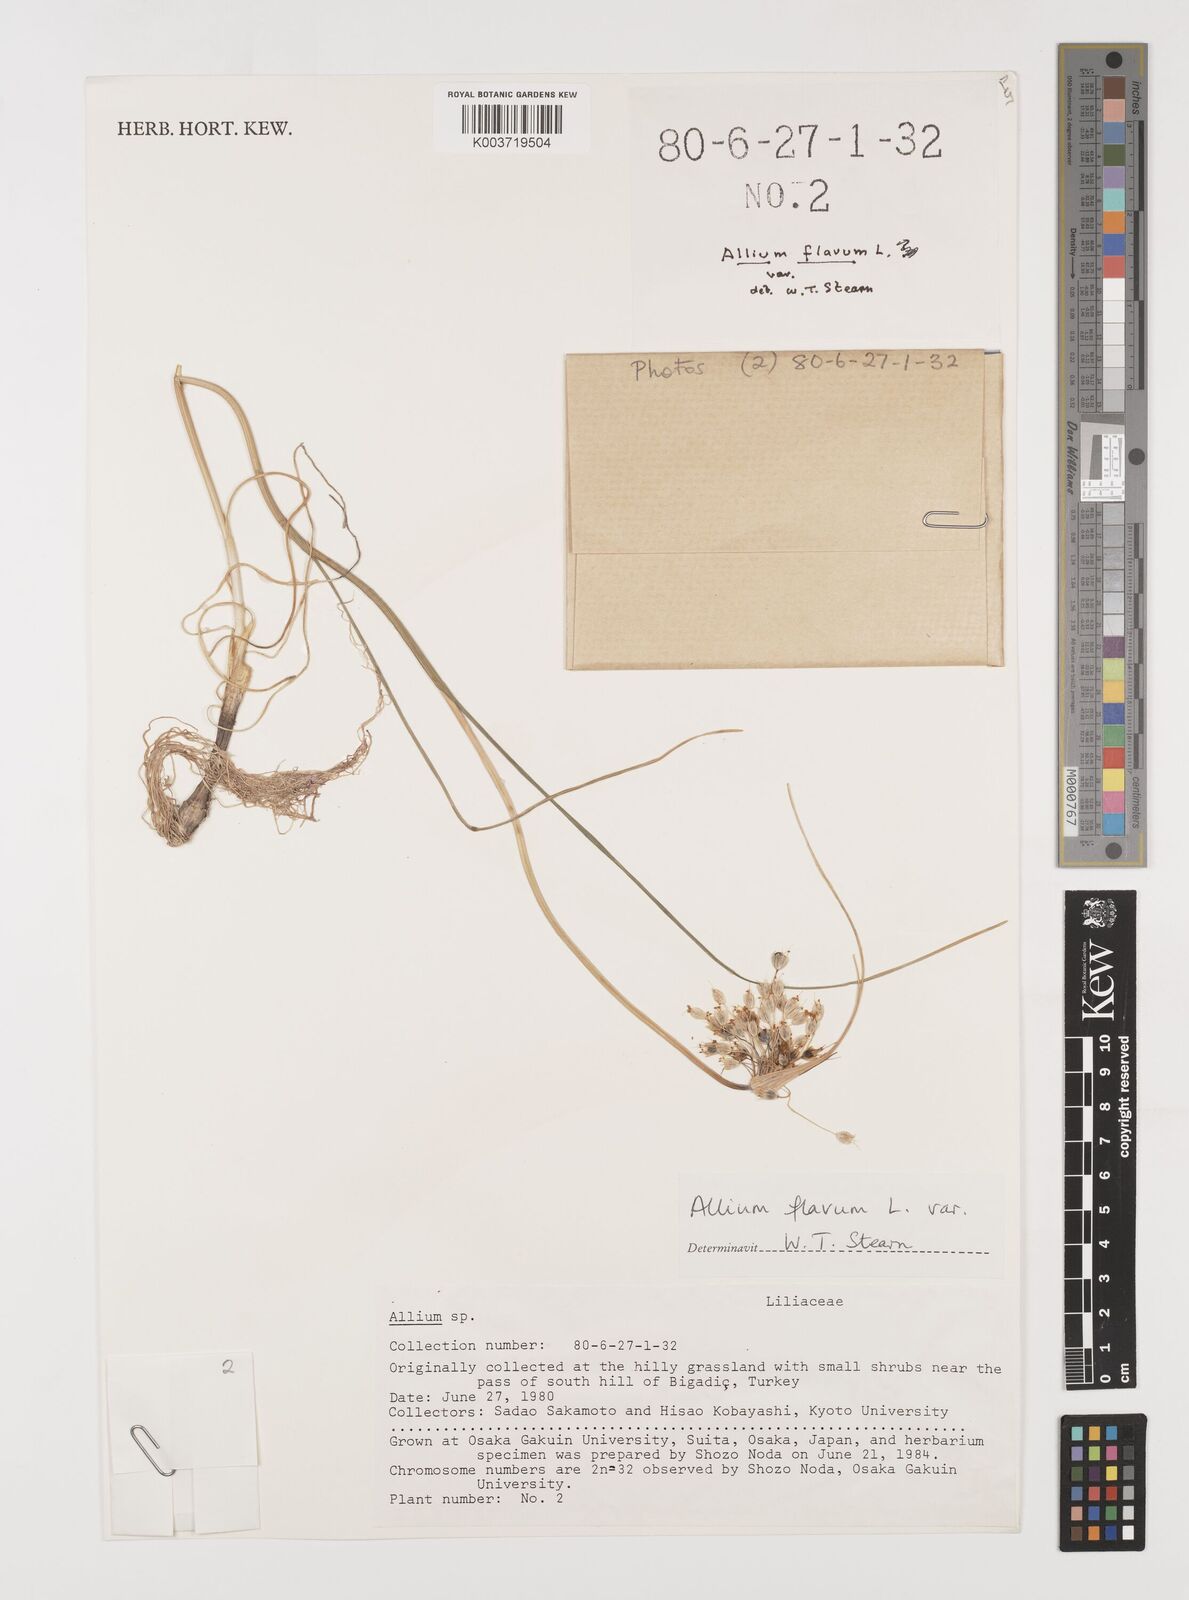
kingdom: Plantae
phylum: Tracheophyta
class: Liliopsida
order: Asparagales
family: Amaryllidaceae
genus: Allium
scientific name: Allium flavum
